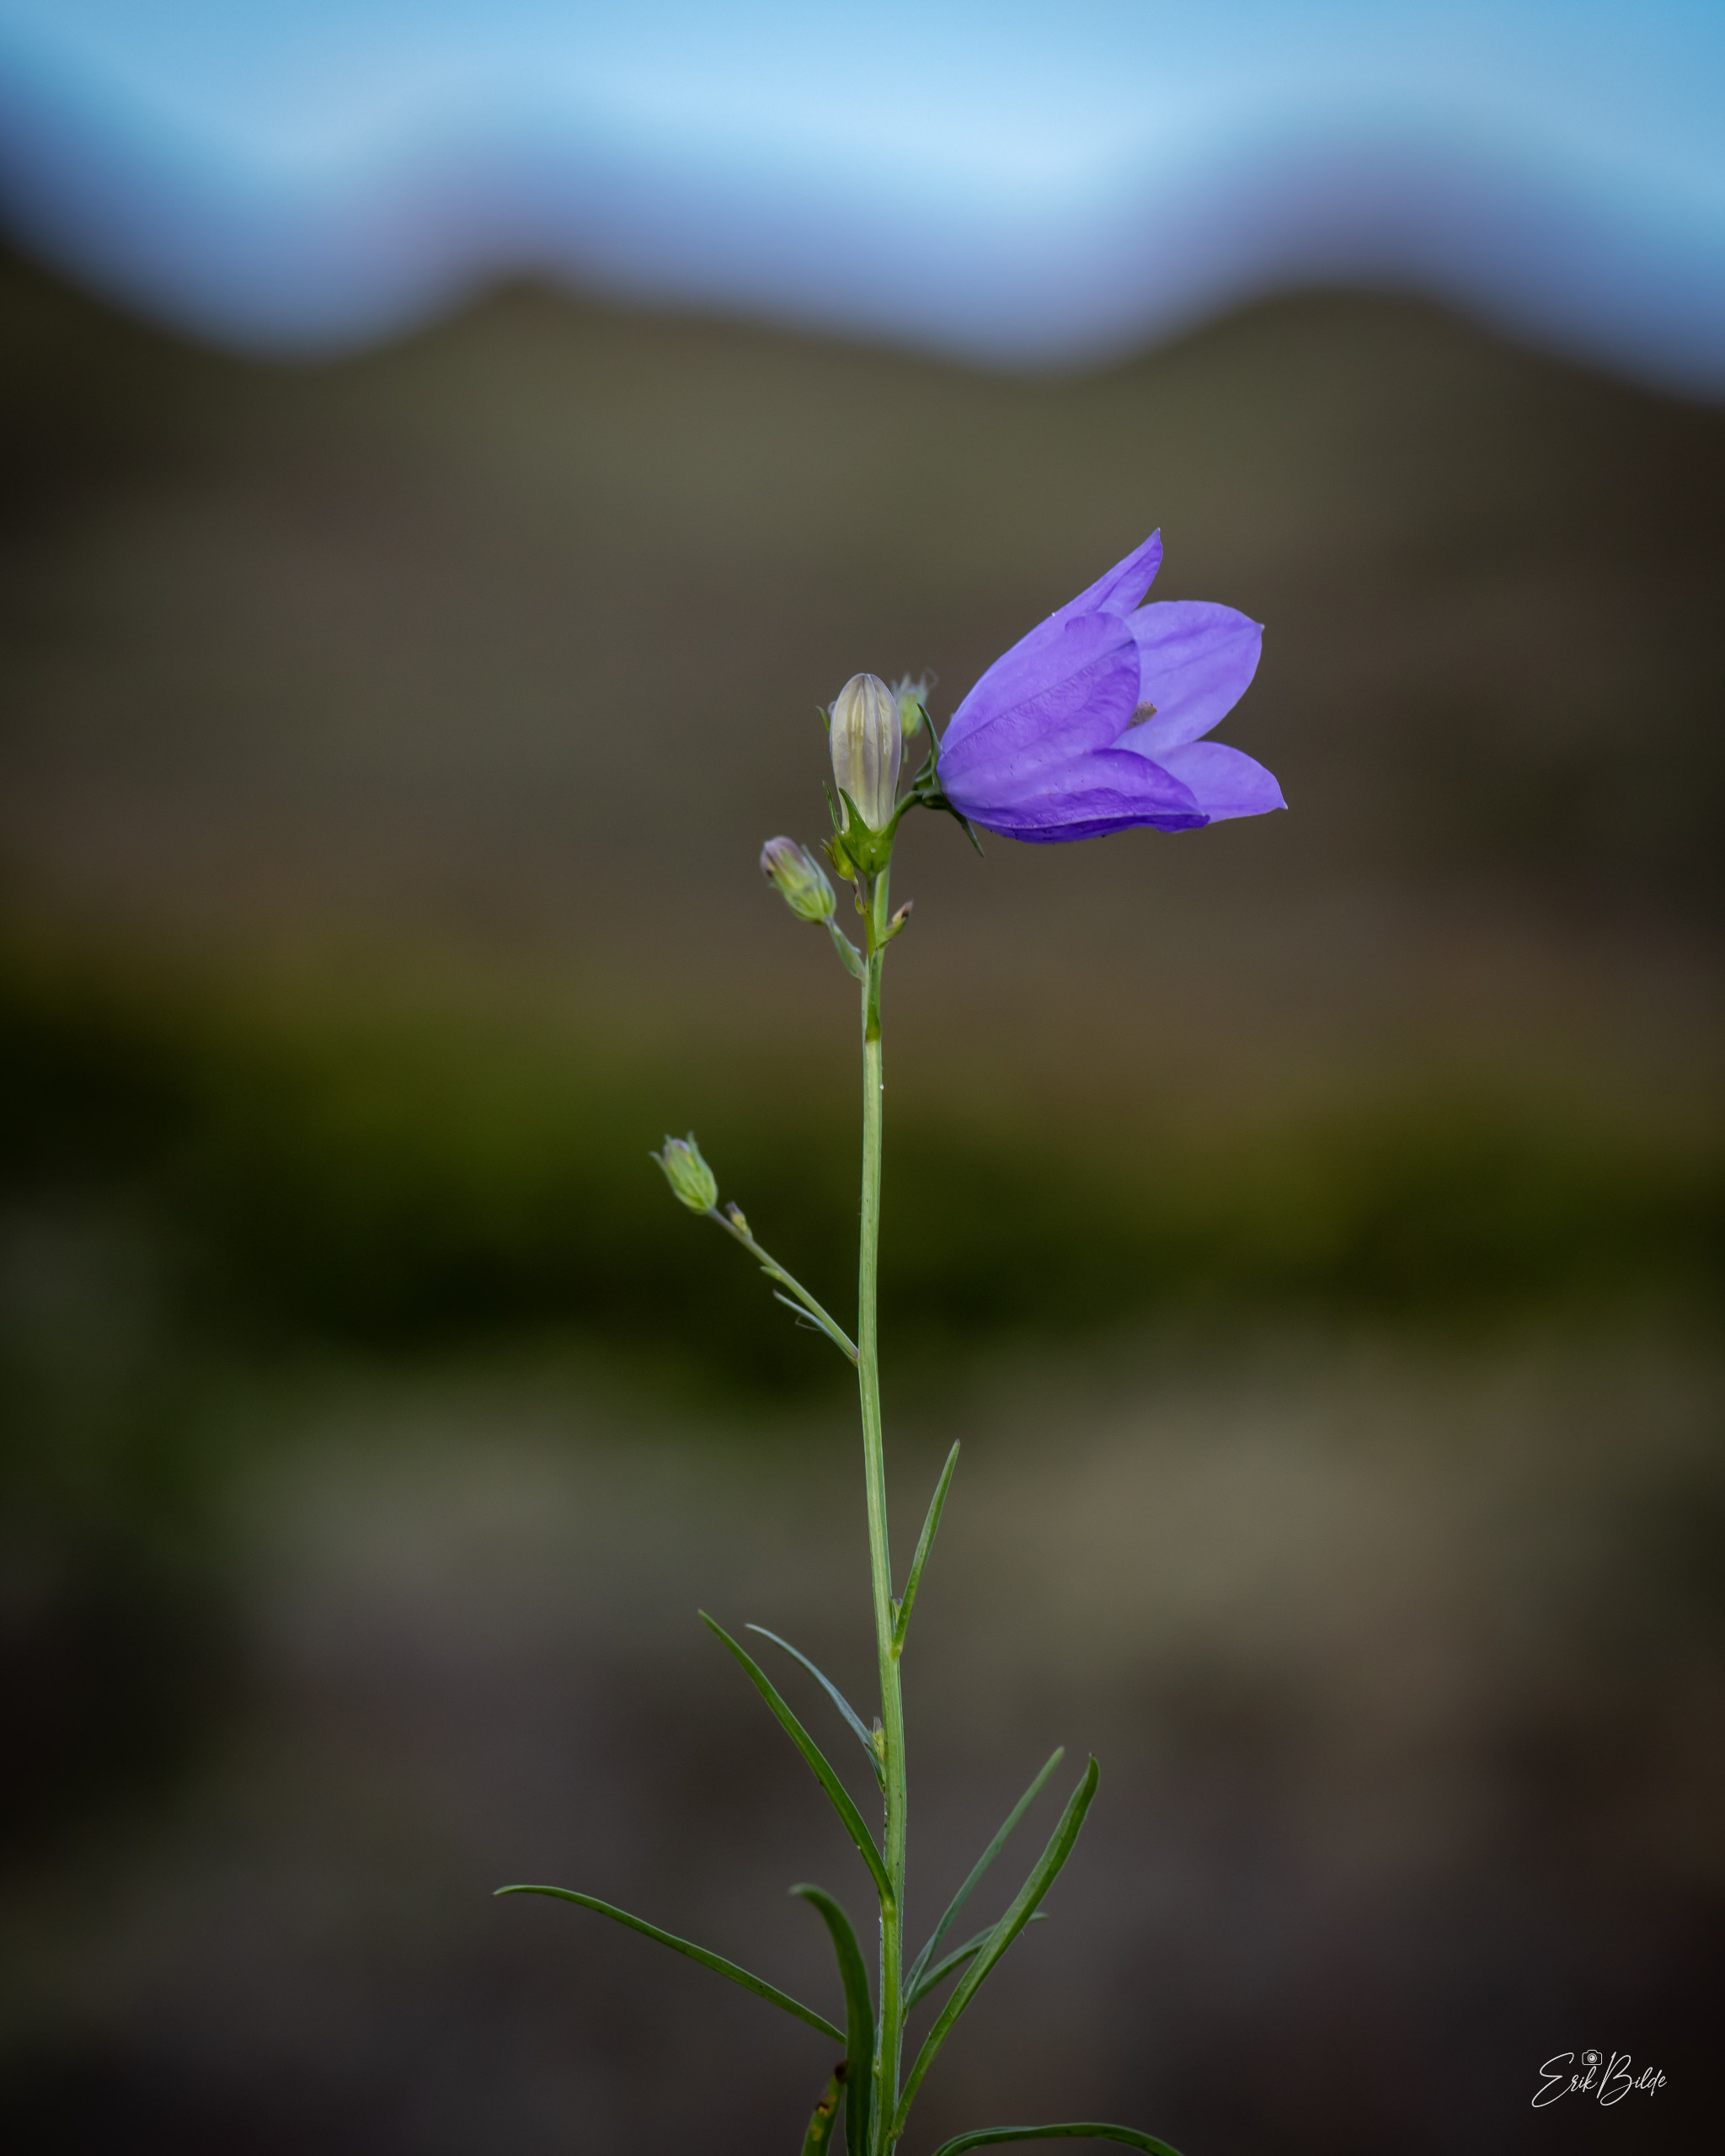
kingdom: Plantae
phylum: Tracheophyta
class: Magnoliopsida
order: Asterales
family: Campanulaceae
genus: Campanula
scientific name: Campanula rotundifolia
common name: Liden klokke
